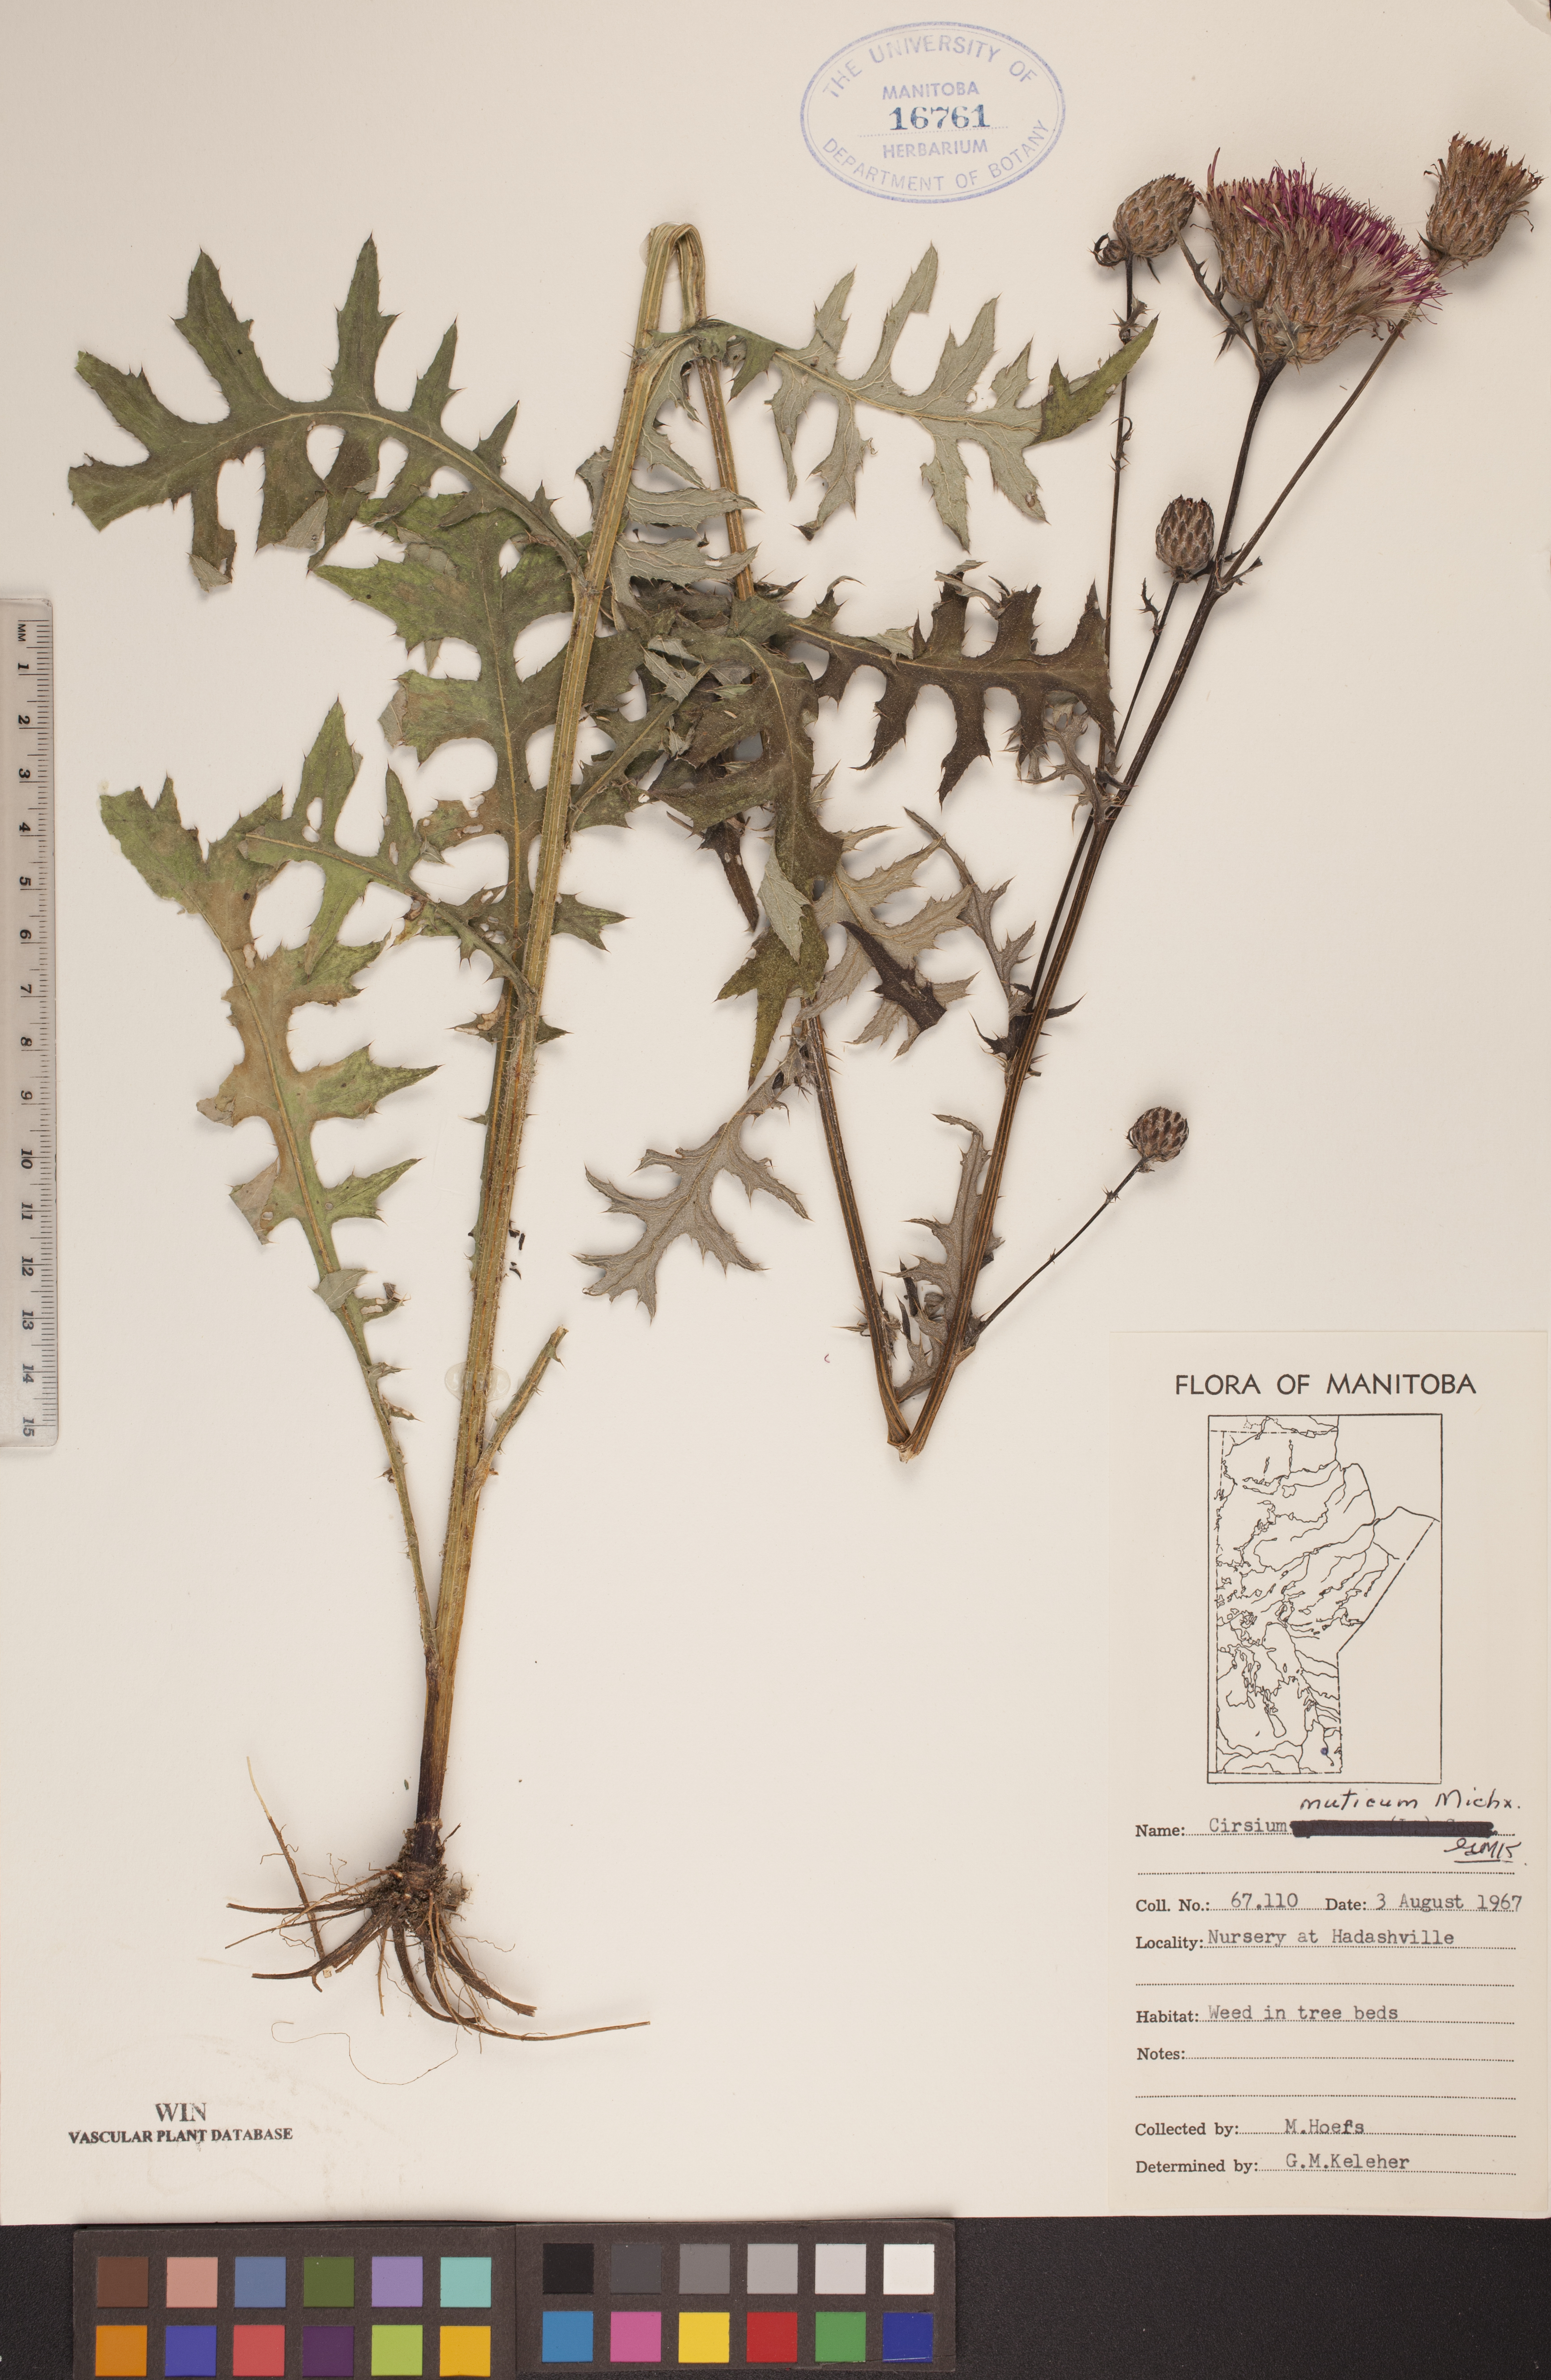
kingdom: Plantae
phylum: Tracheophyta
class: Magnoliopsida
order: Asterales
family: Asteraceae
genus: Cirsium
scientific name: Cirsium muticum
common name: Dunce-nettle
